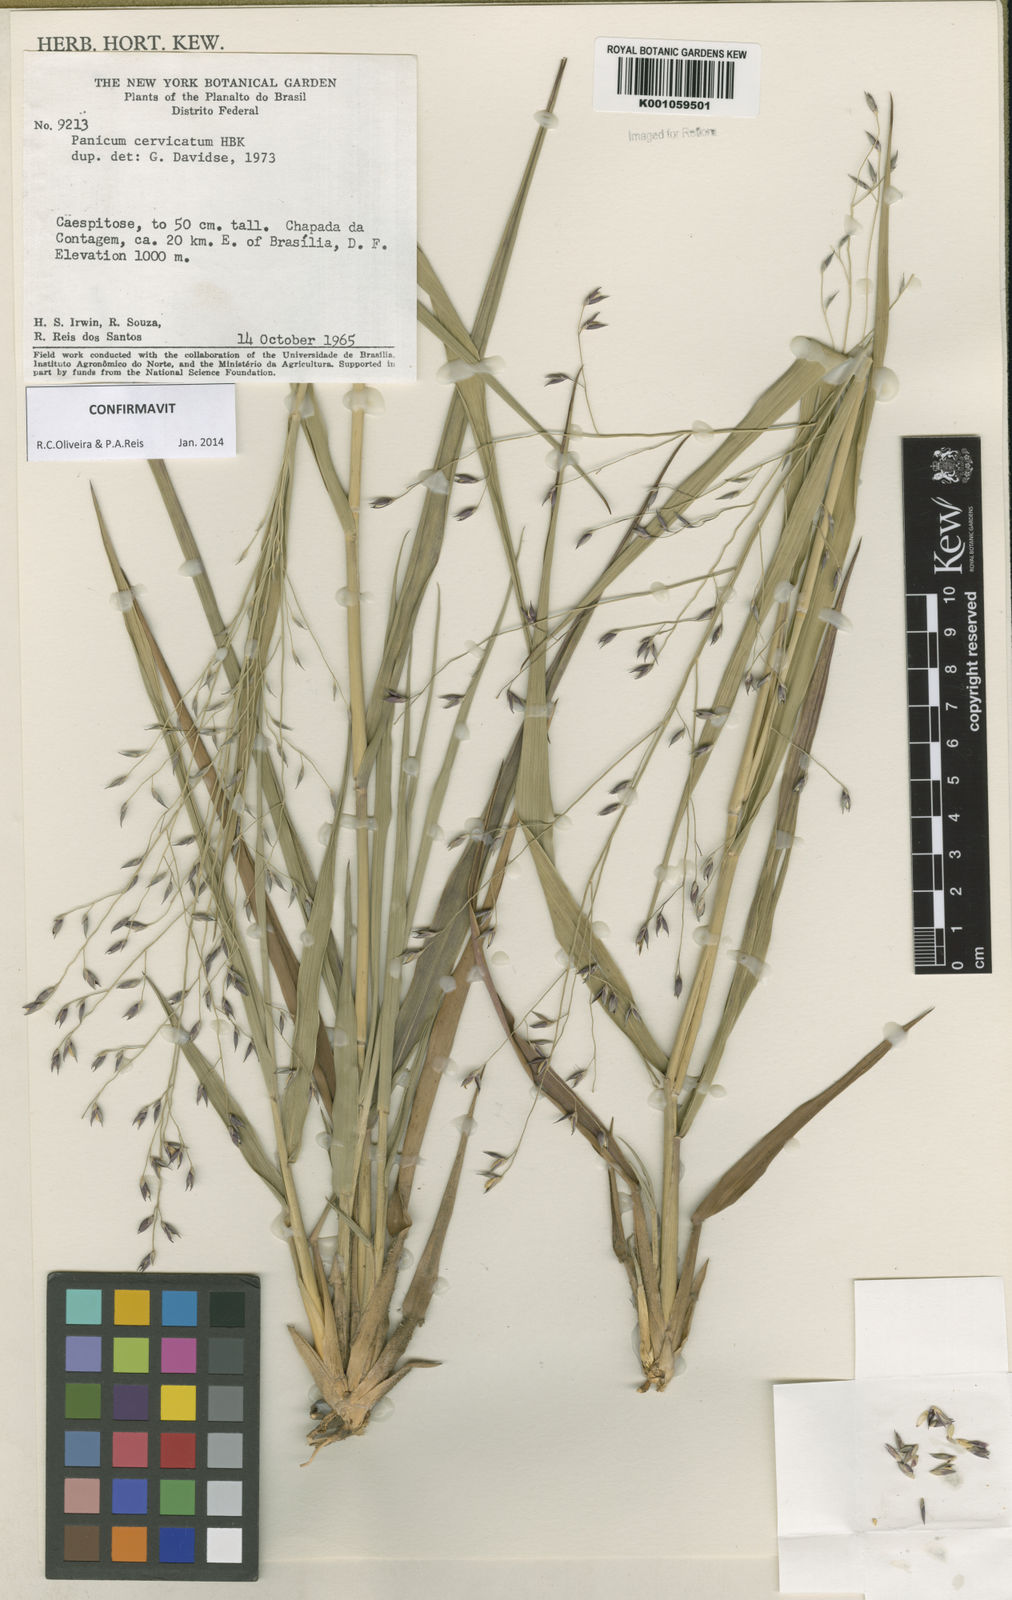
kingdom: Plantae
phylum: Tracheophyta
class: Liliopsida
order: Poales
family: Poaceae
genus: Panicum
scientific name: Panicum cervicatum
